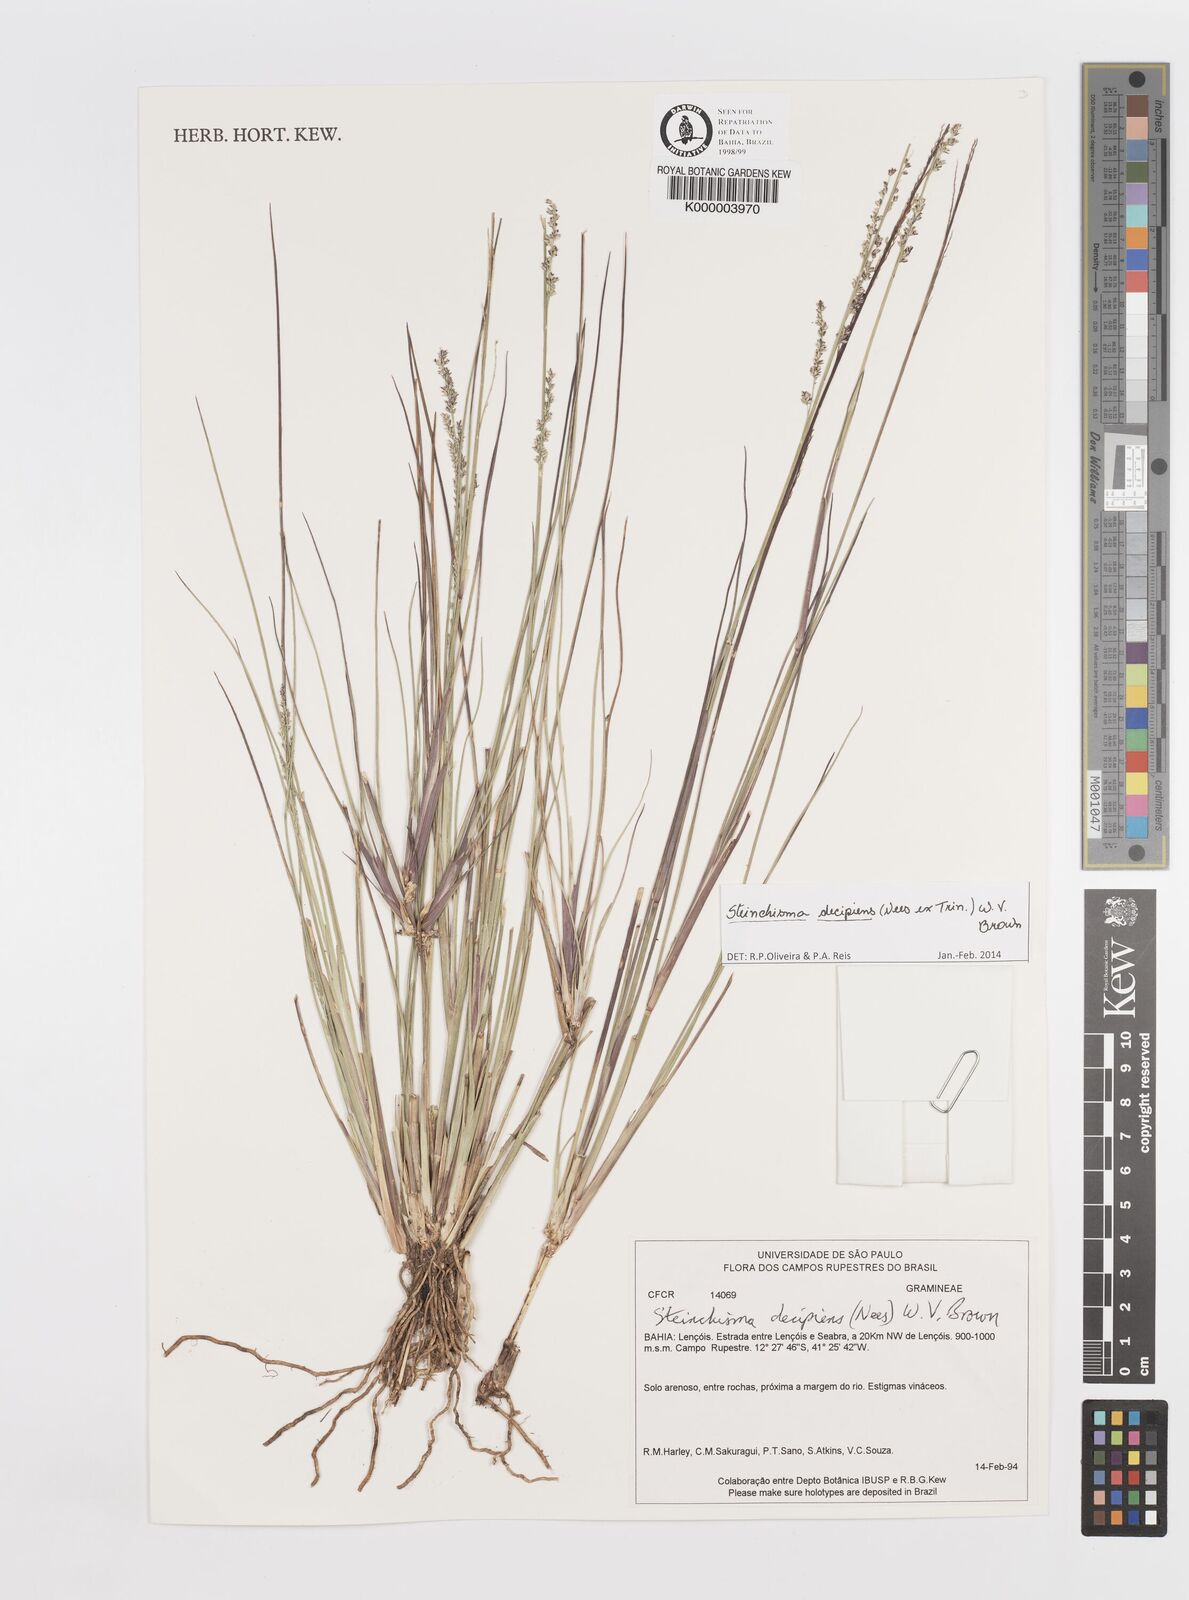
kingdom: Plantae
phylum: Tracheophyta
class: Liliopsida
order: Poales
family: Poaceae
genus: Steinchisma
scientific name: Steinchisma
